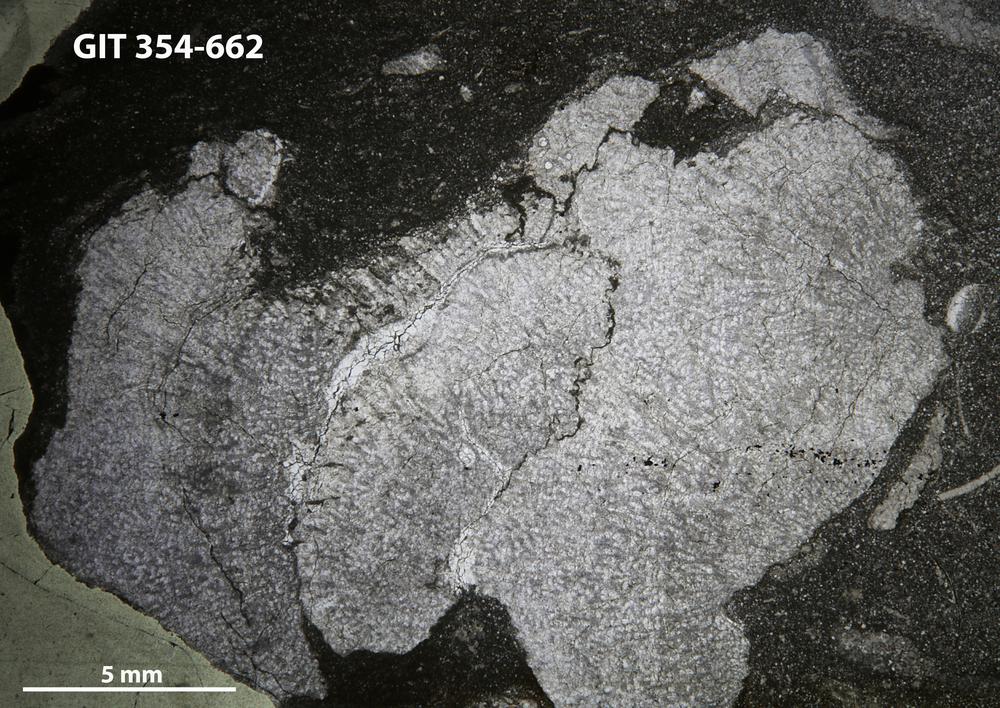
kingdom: Animalia
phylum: Porifera
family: Pseudolabechiidae
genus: Vikingia
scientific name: Vikingia
